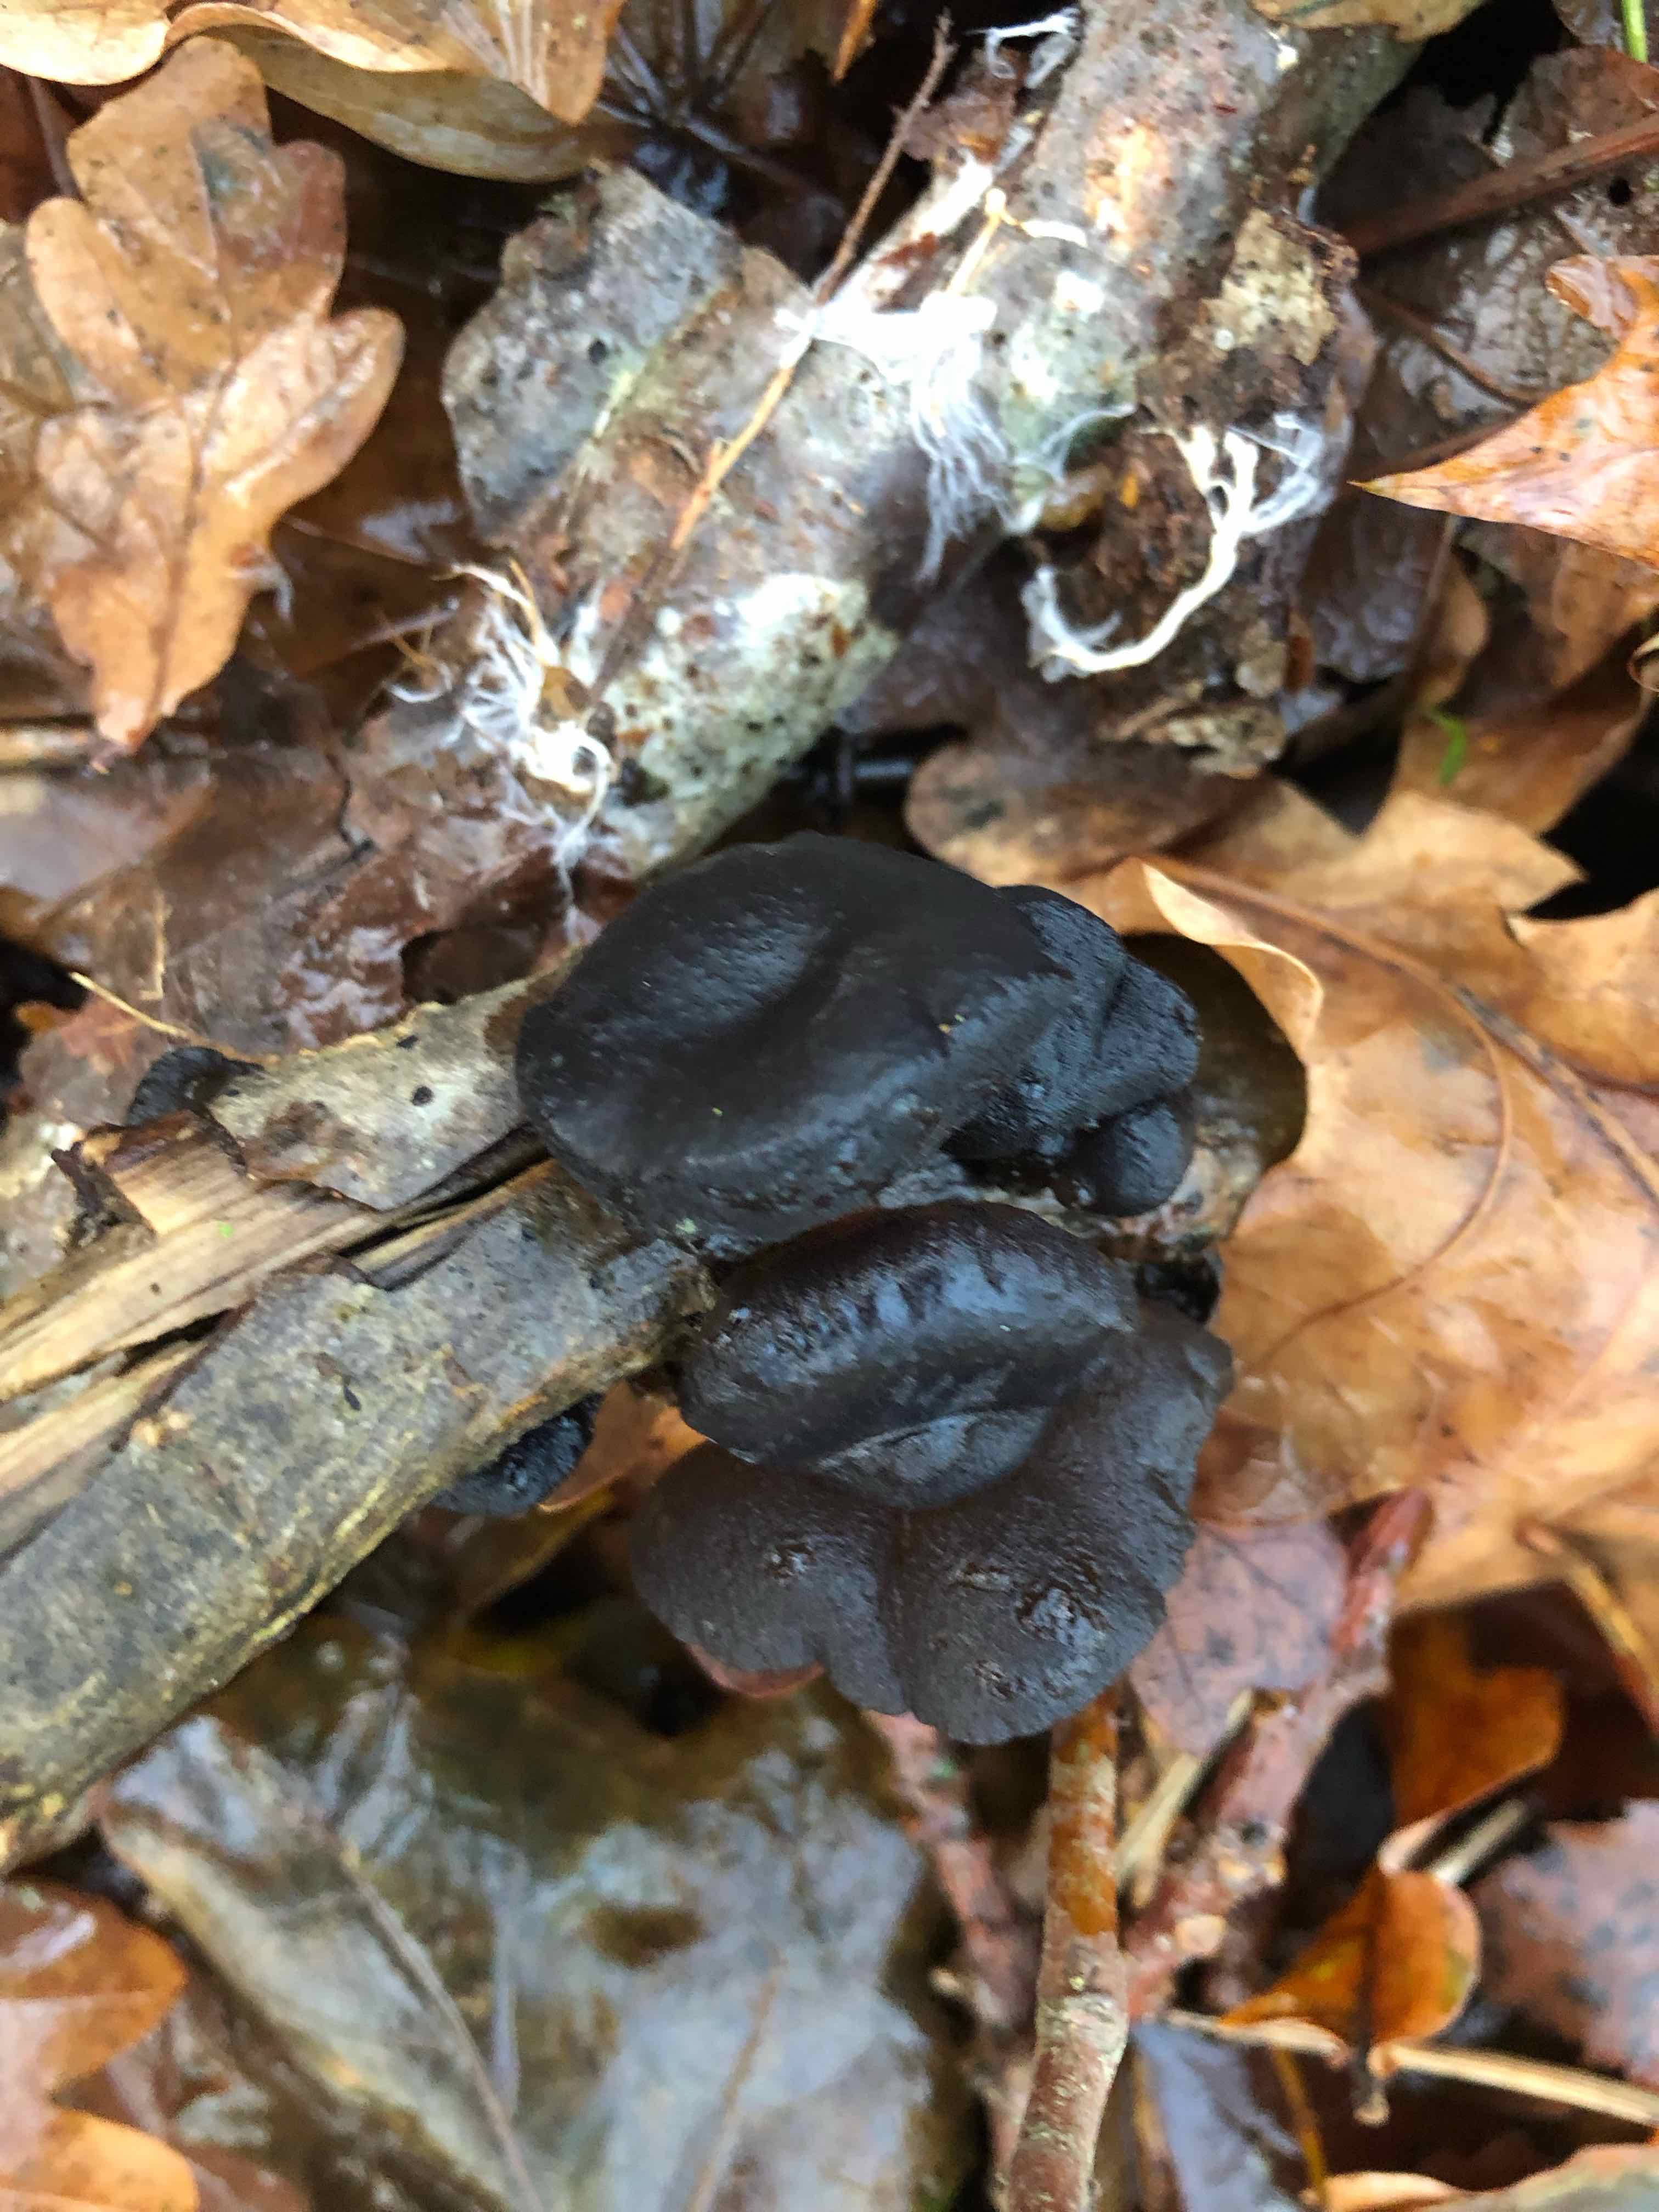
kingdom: Fungi
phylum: Basidiomycota
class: Agaricomycetes
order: Auriculariales
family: Auriculariaceae
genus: Exidia
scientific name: Exidia glandulosa
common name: ege-bævretop
